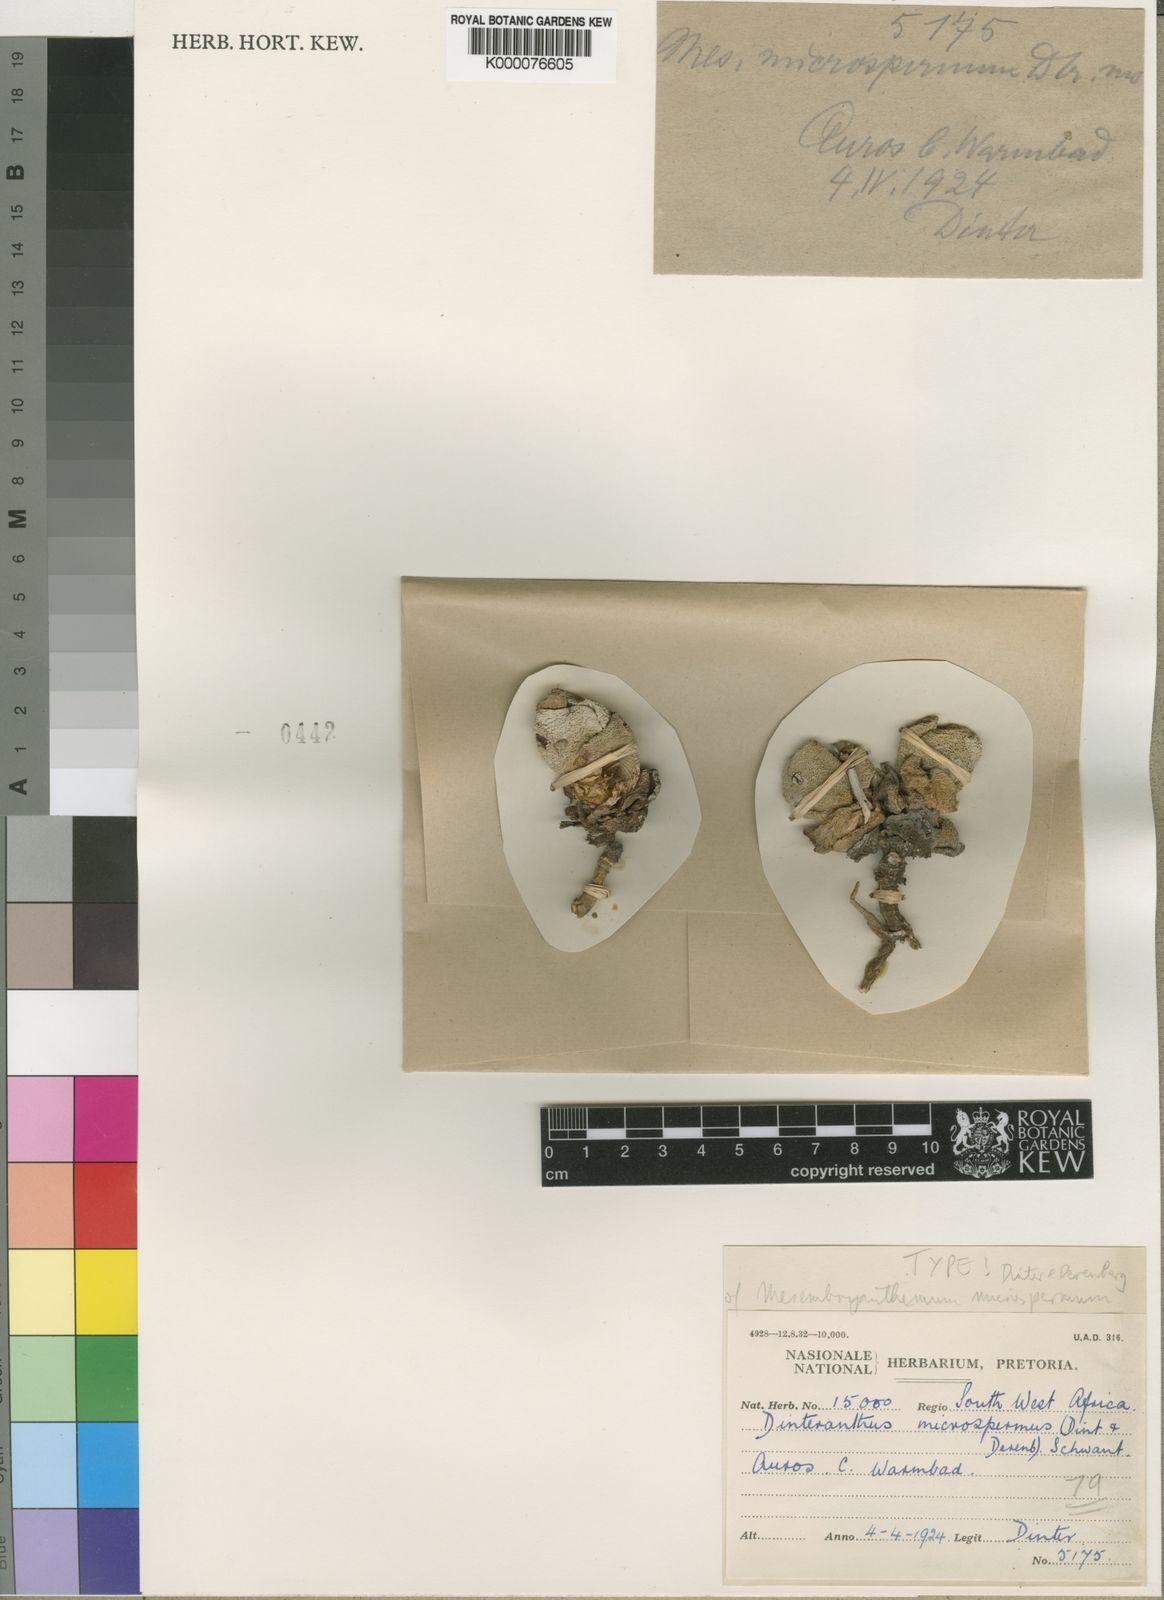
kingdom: Plantae
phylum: Tracheophyta
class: Magnoliopsida
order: Caryophyllales
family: Aizoaceae
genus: Dinteranthus
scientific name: Dinteranthus microspermus
